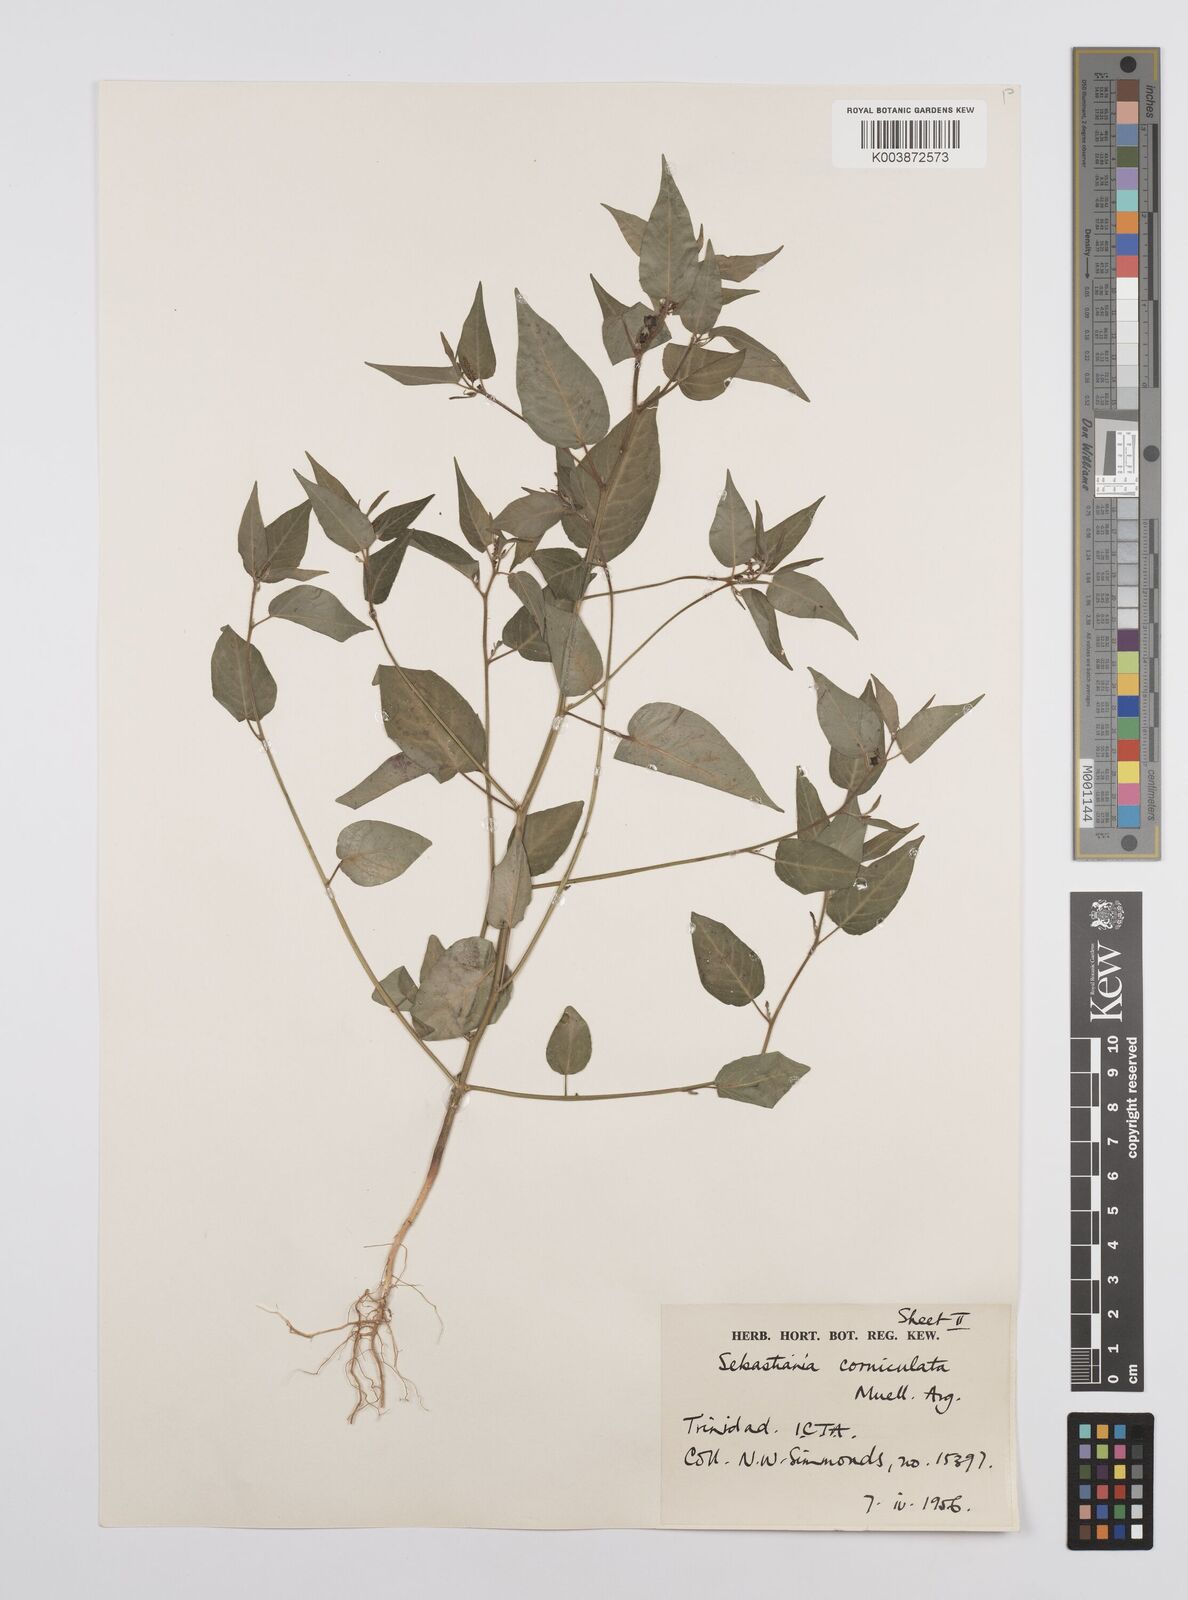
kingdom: Plantae
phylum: Tracheophyta
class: Magnoliopsida
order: Malpighiales
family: Euphorbiaceae
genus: Microstachys
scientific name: Microstachys corniculata
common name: Hato tejas
